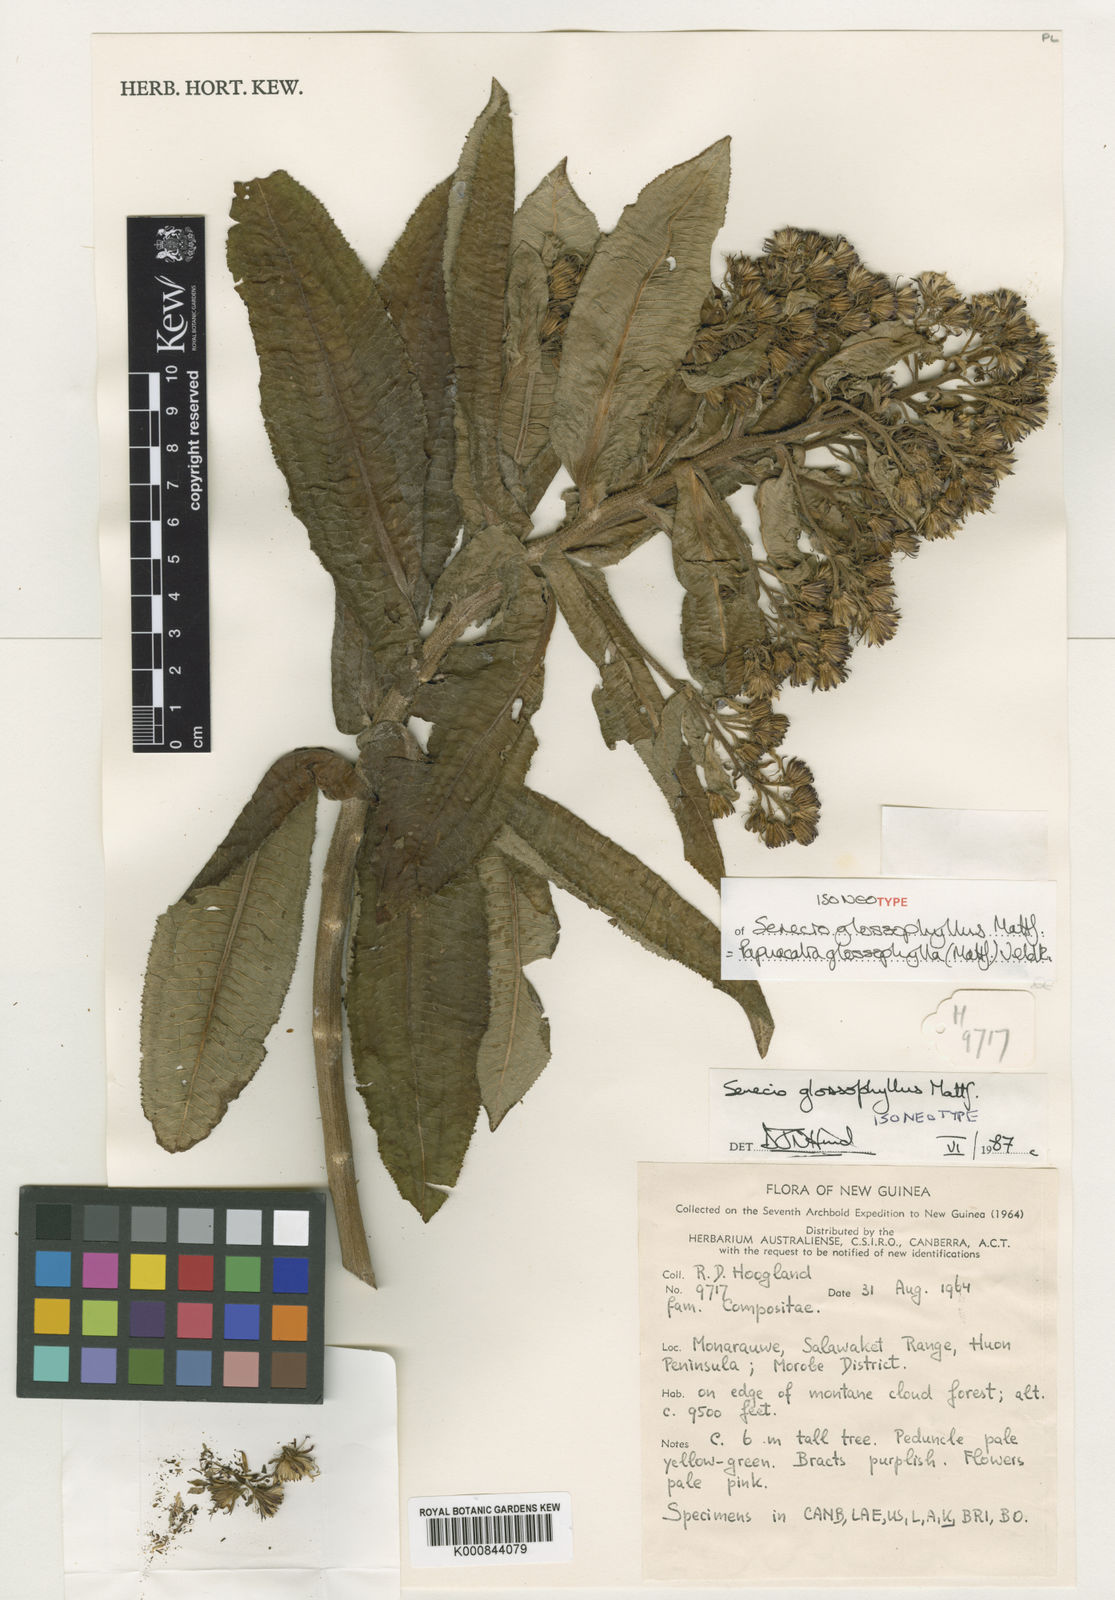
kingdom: Plantae
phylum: Tracheophyta
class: Magnoliopsida
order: Asterales
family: Asteraceae
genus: Papuacalia
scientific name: Papuacalia glossophylla
